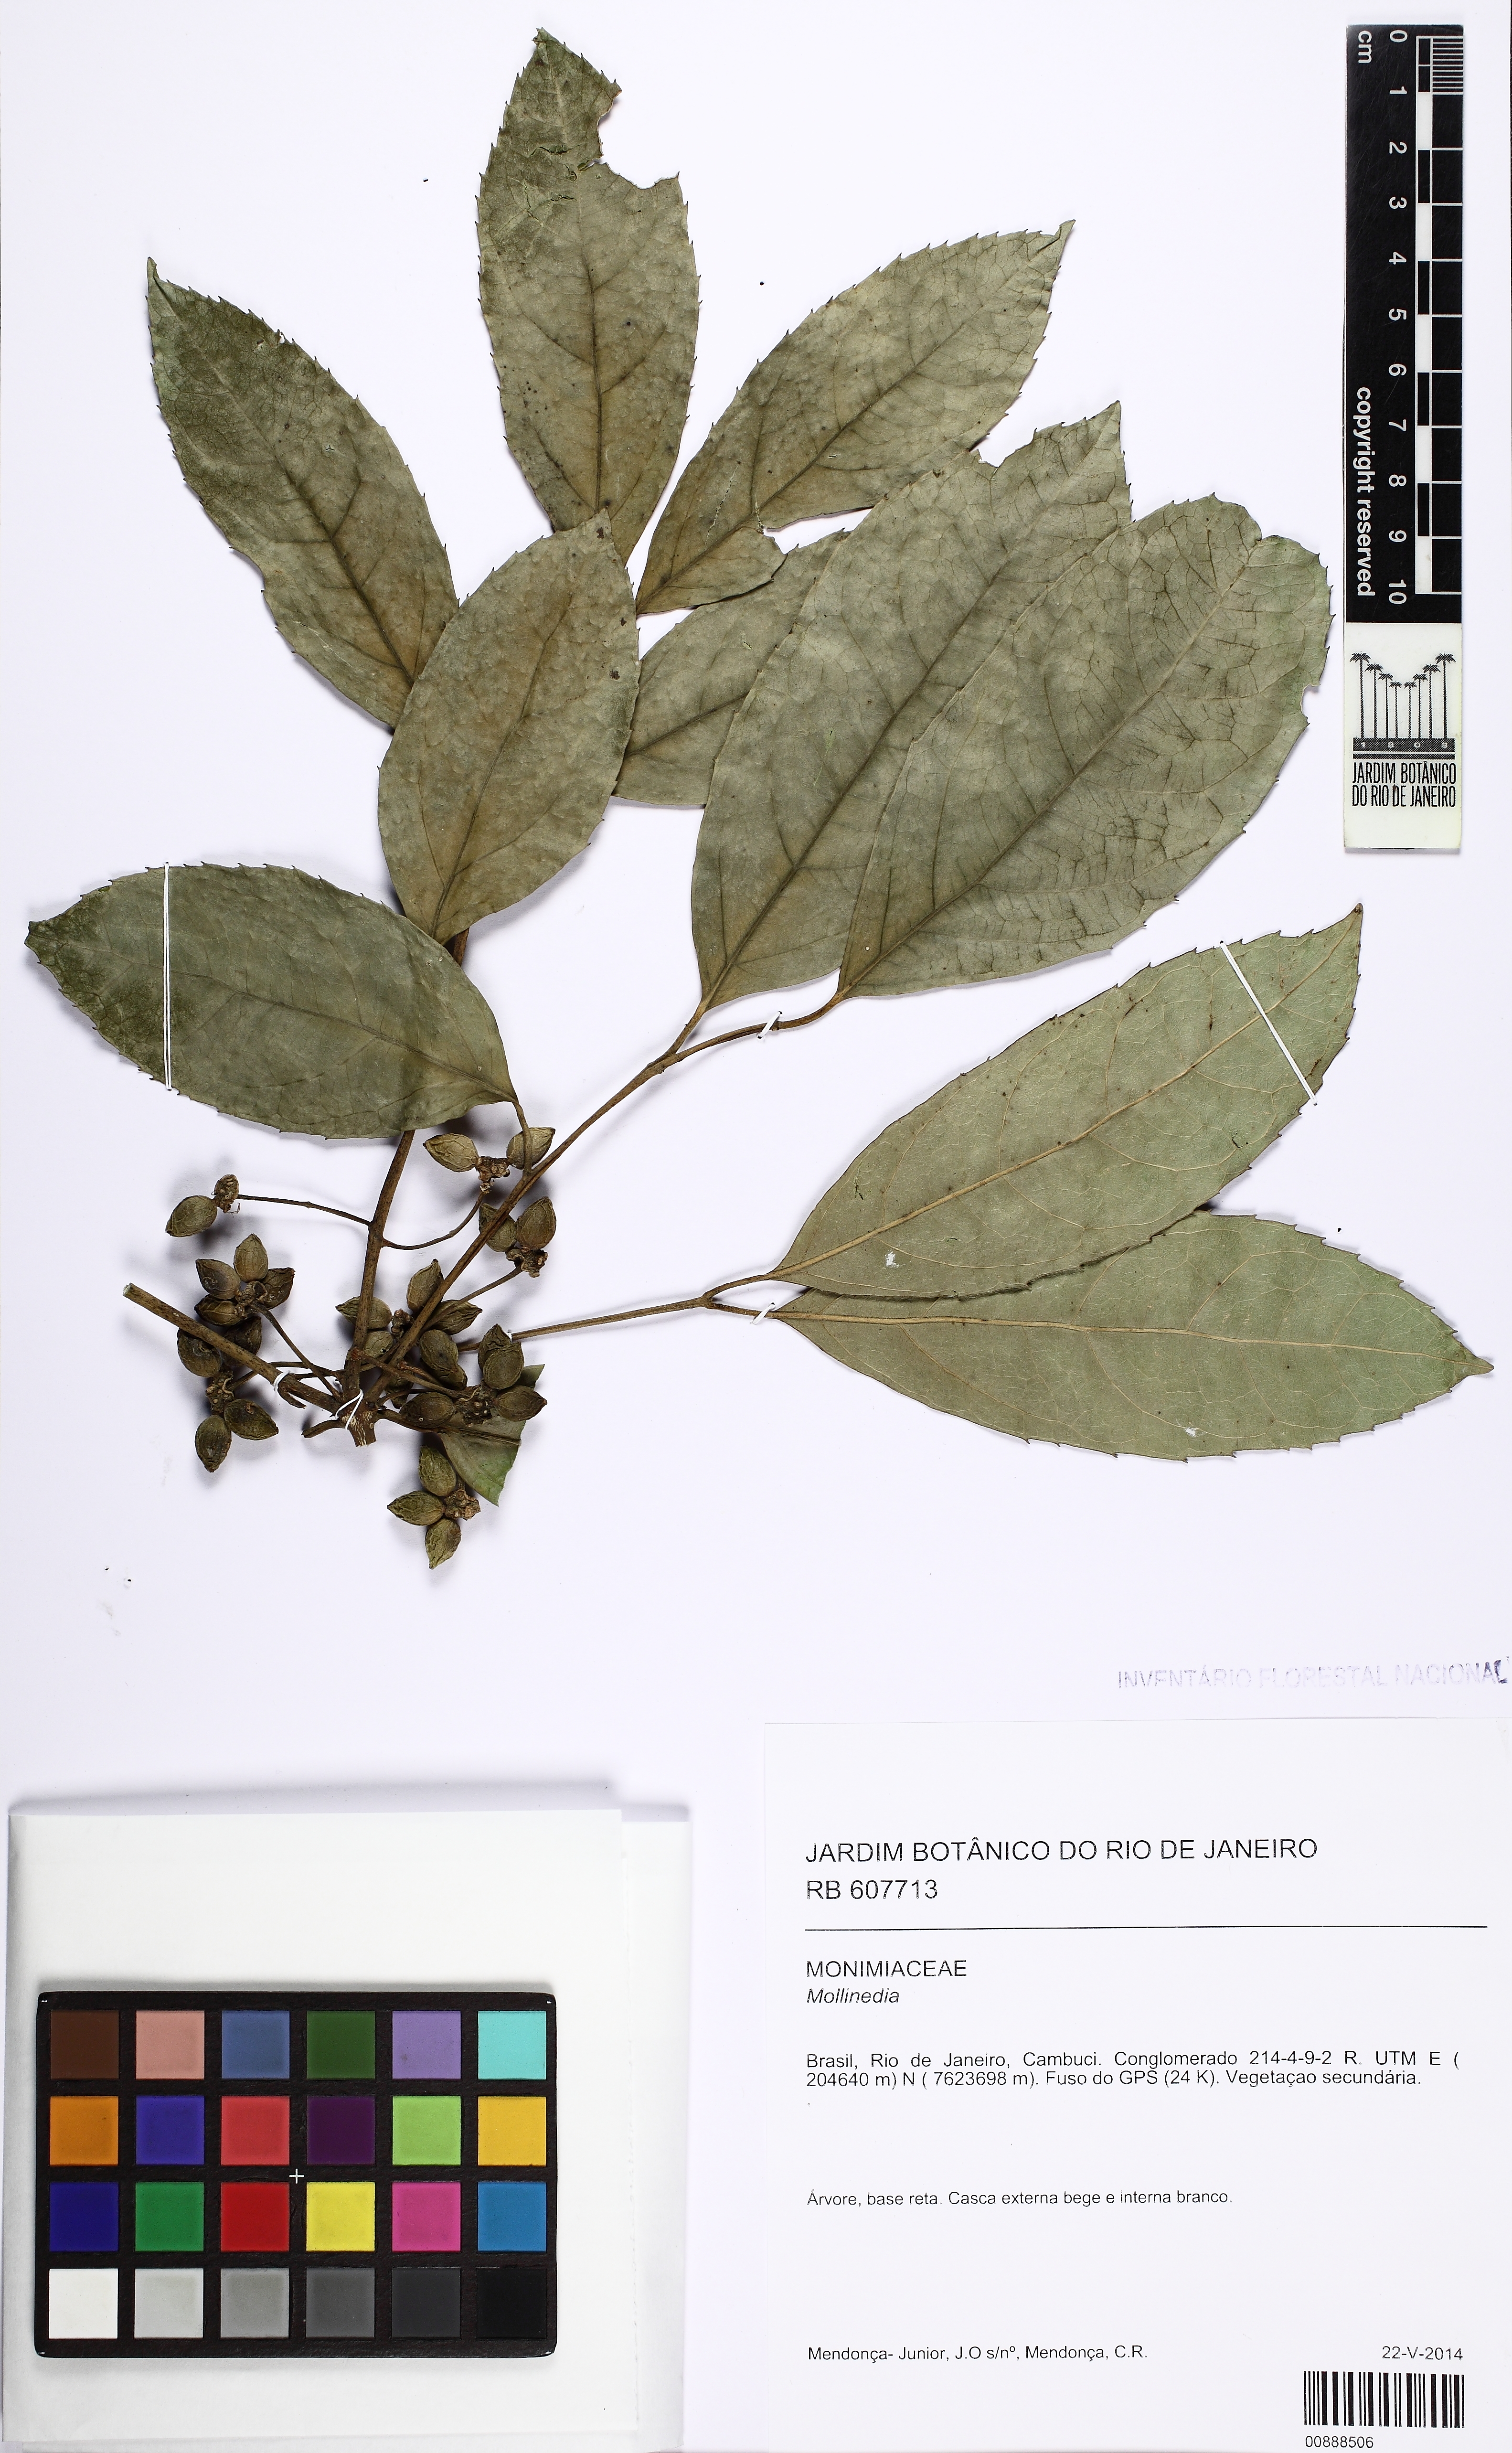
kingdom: Plantae
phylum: Tracheophyta
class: Magnoliopsida
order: Laurales
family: Monimiaceae
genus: Mollinedia
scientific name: Mollinedia ovata
